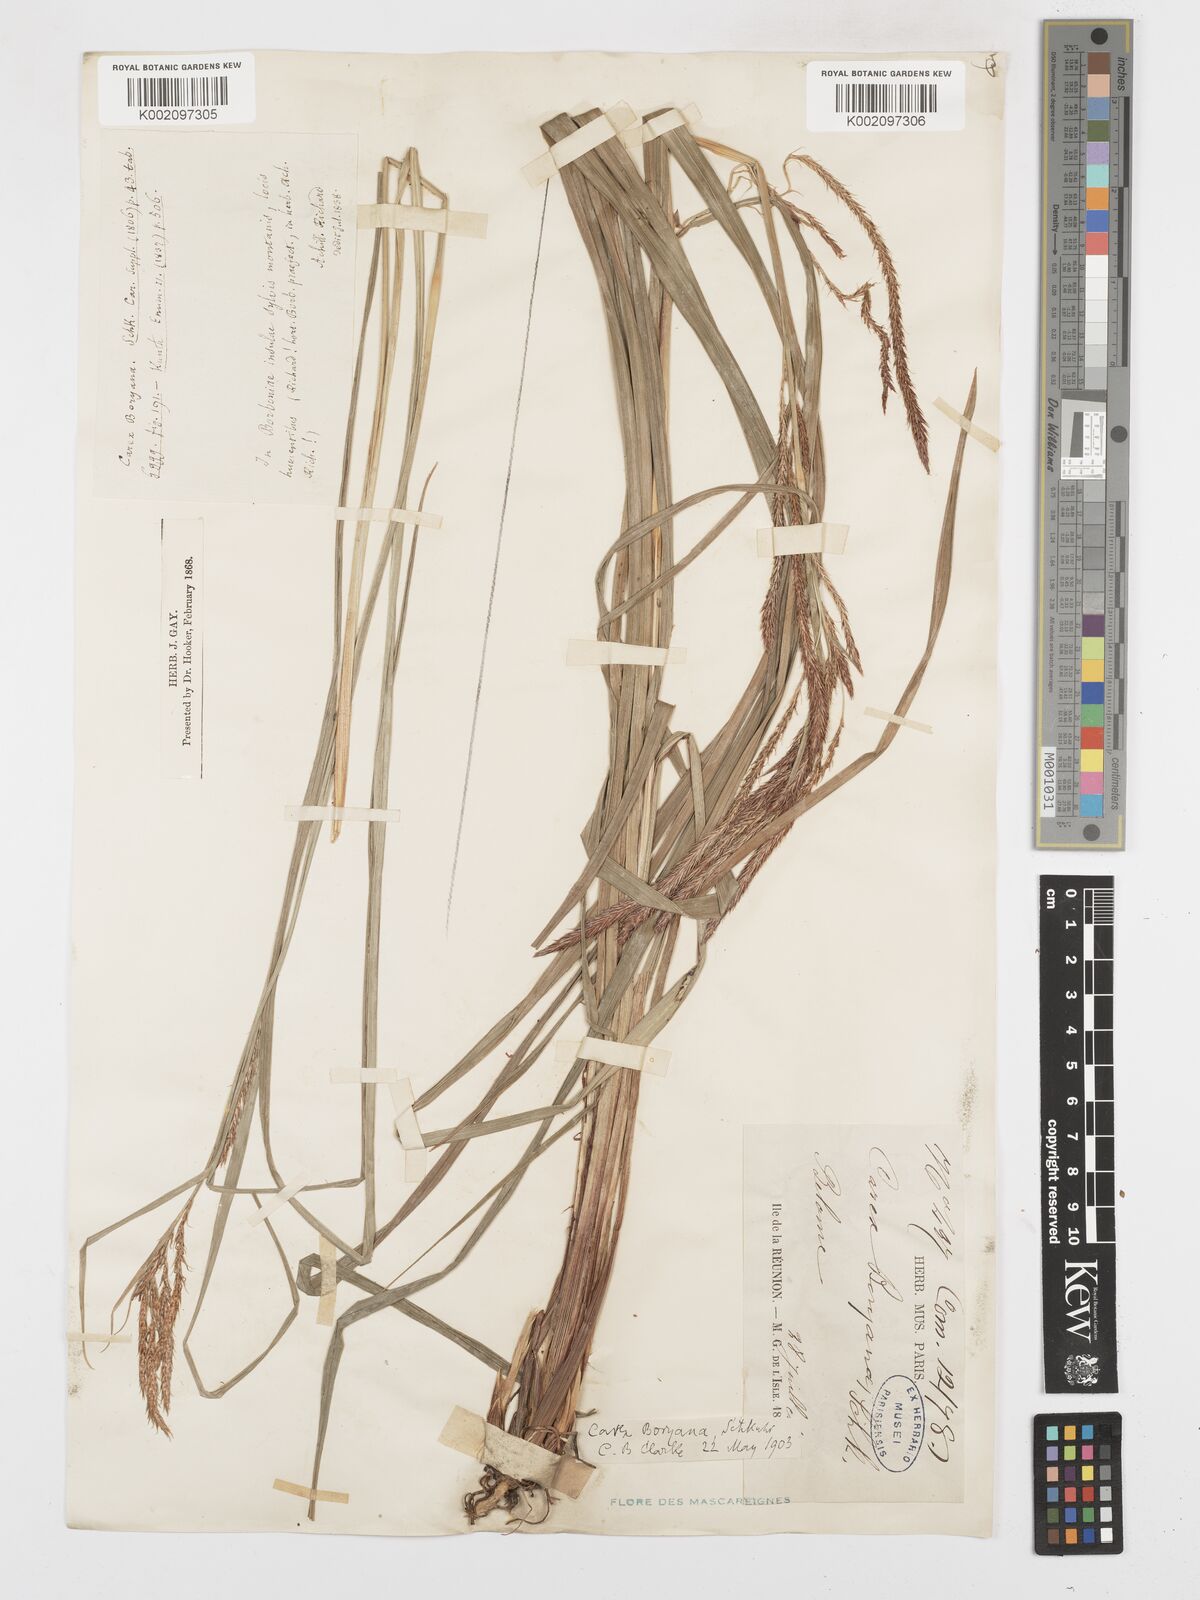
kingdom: Plantae
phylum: Tracheophyta
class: Liliopsida
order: Poales
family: Cyperaceae
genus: Carex
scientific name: Carex boryana
